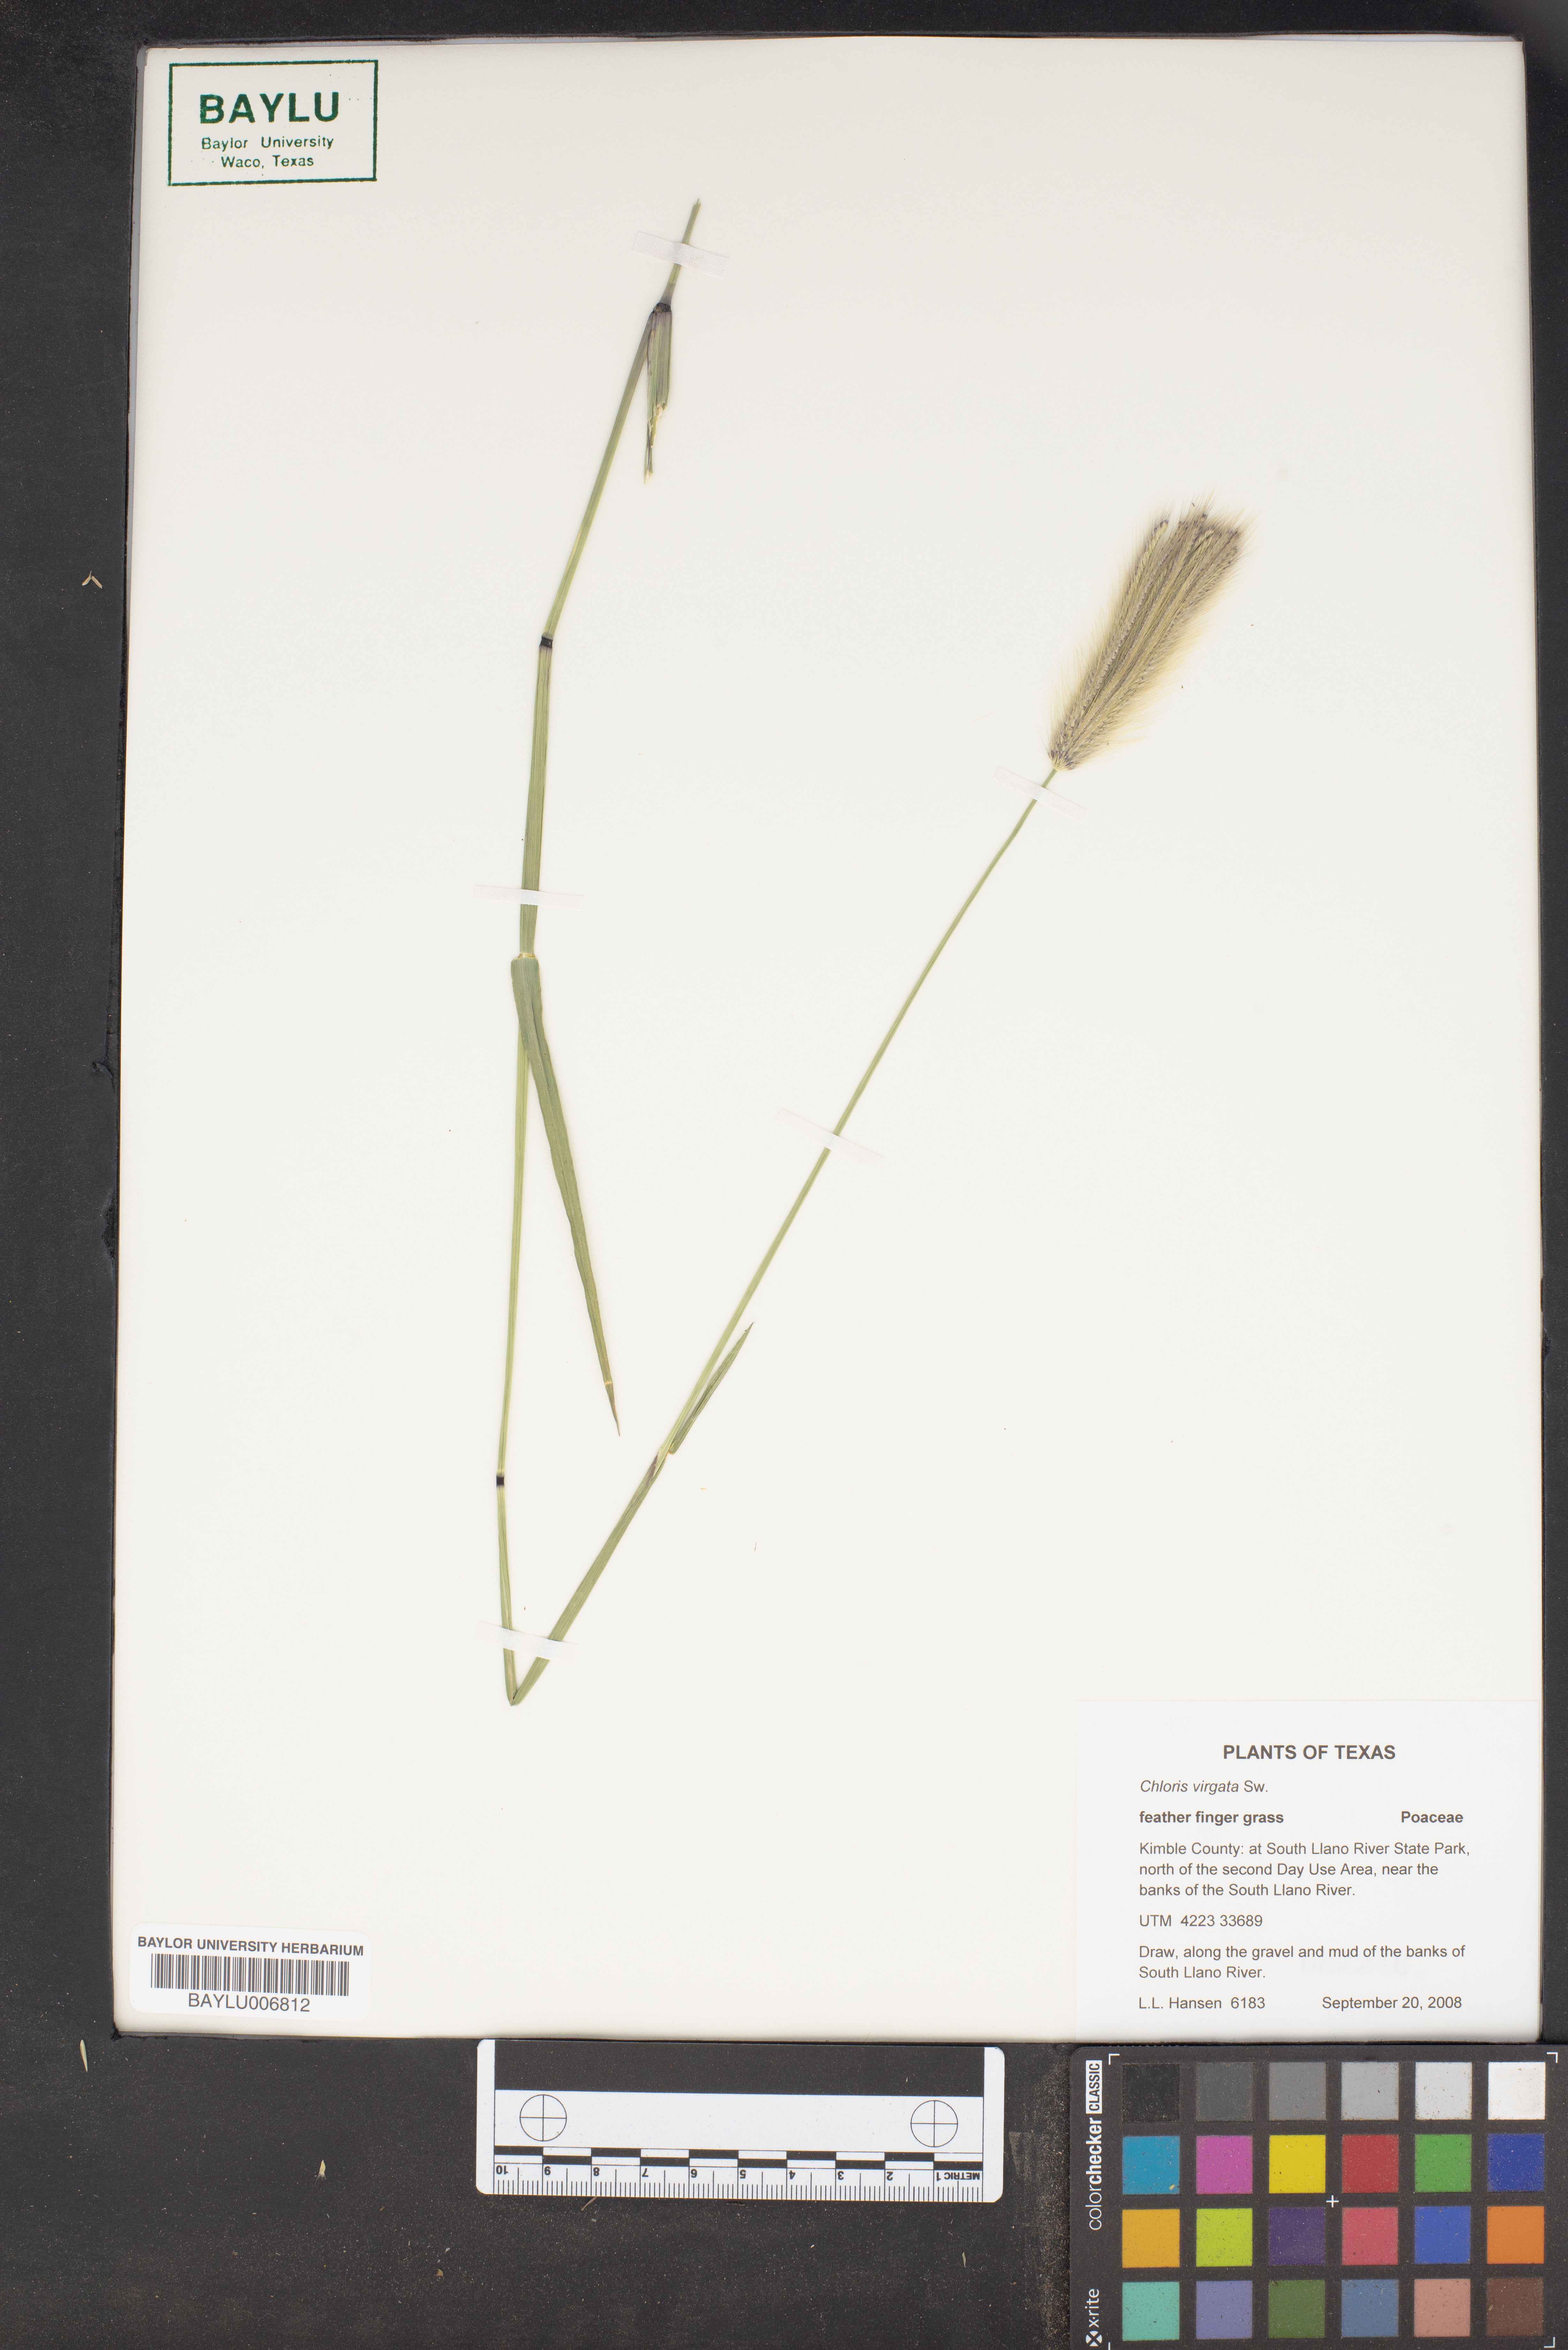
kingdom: Plantae
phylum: Tracheophyta
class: Liliopsida
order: Poales
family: Poaceae
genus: Chloris
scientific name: Chloris virgata
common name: Feathery rhodes-grass
